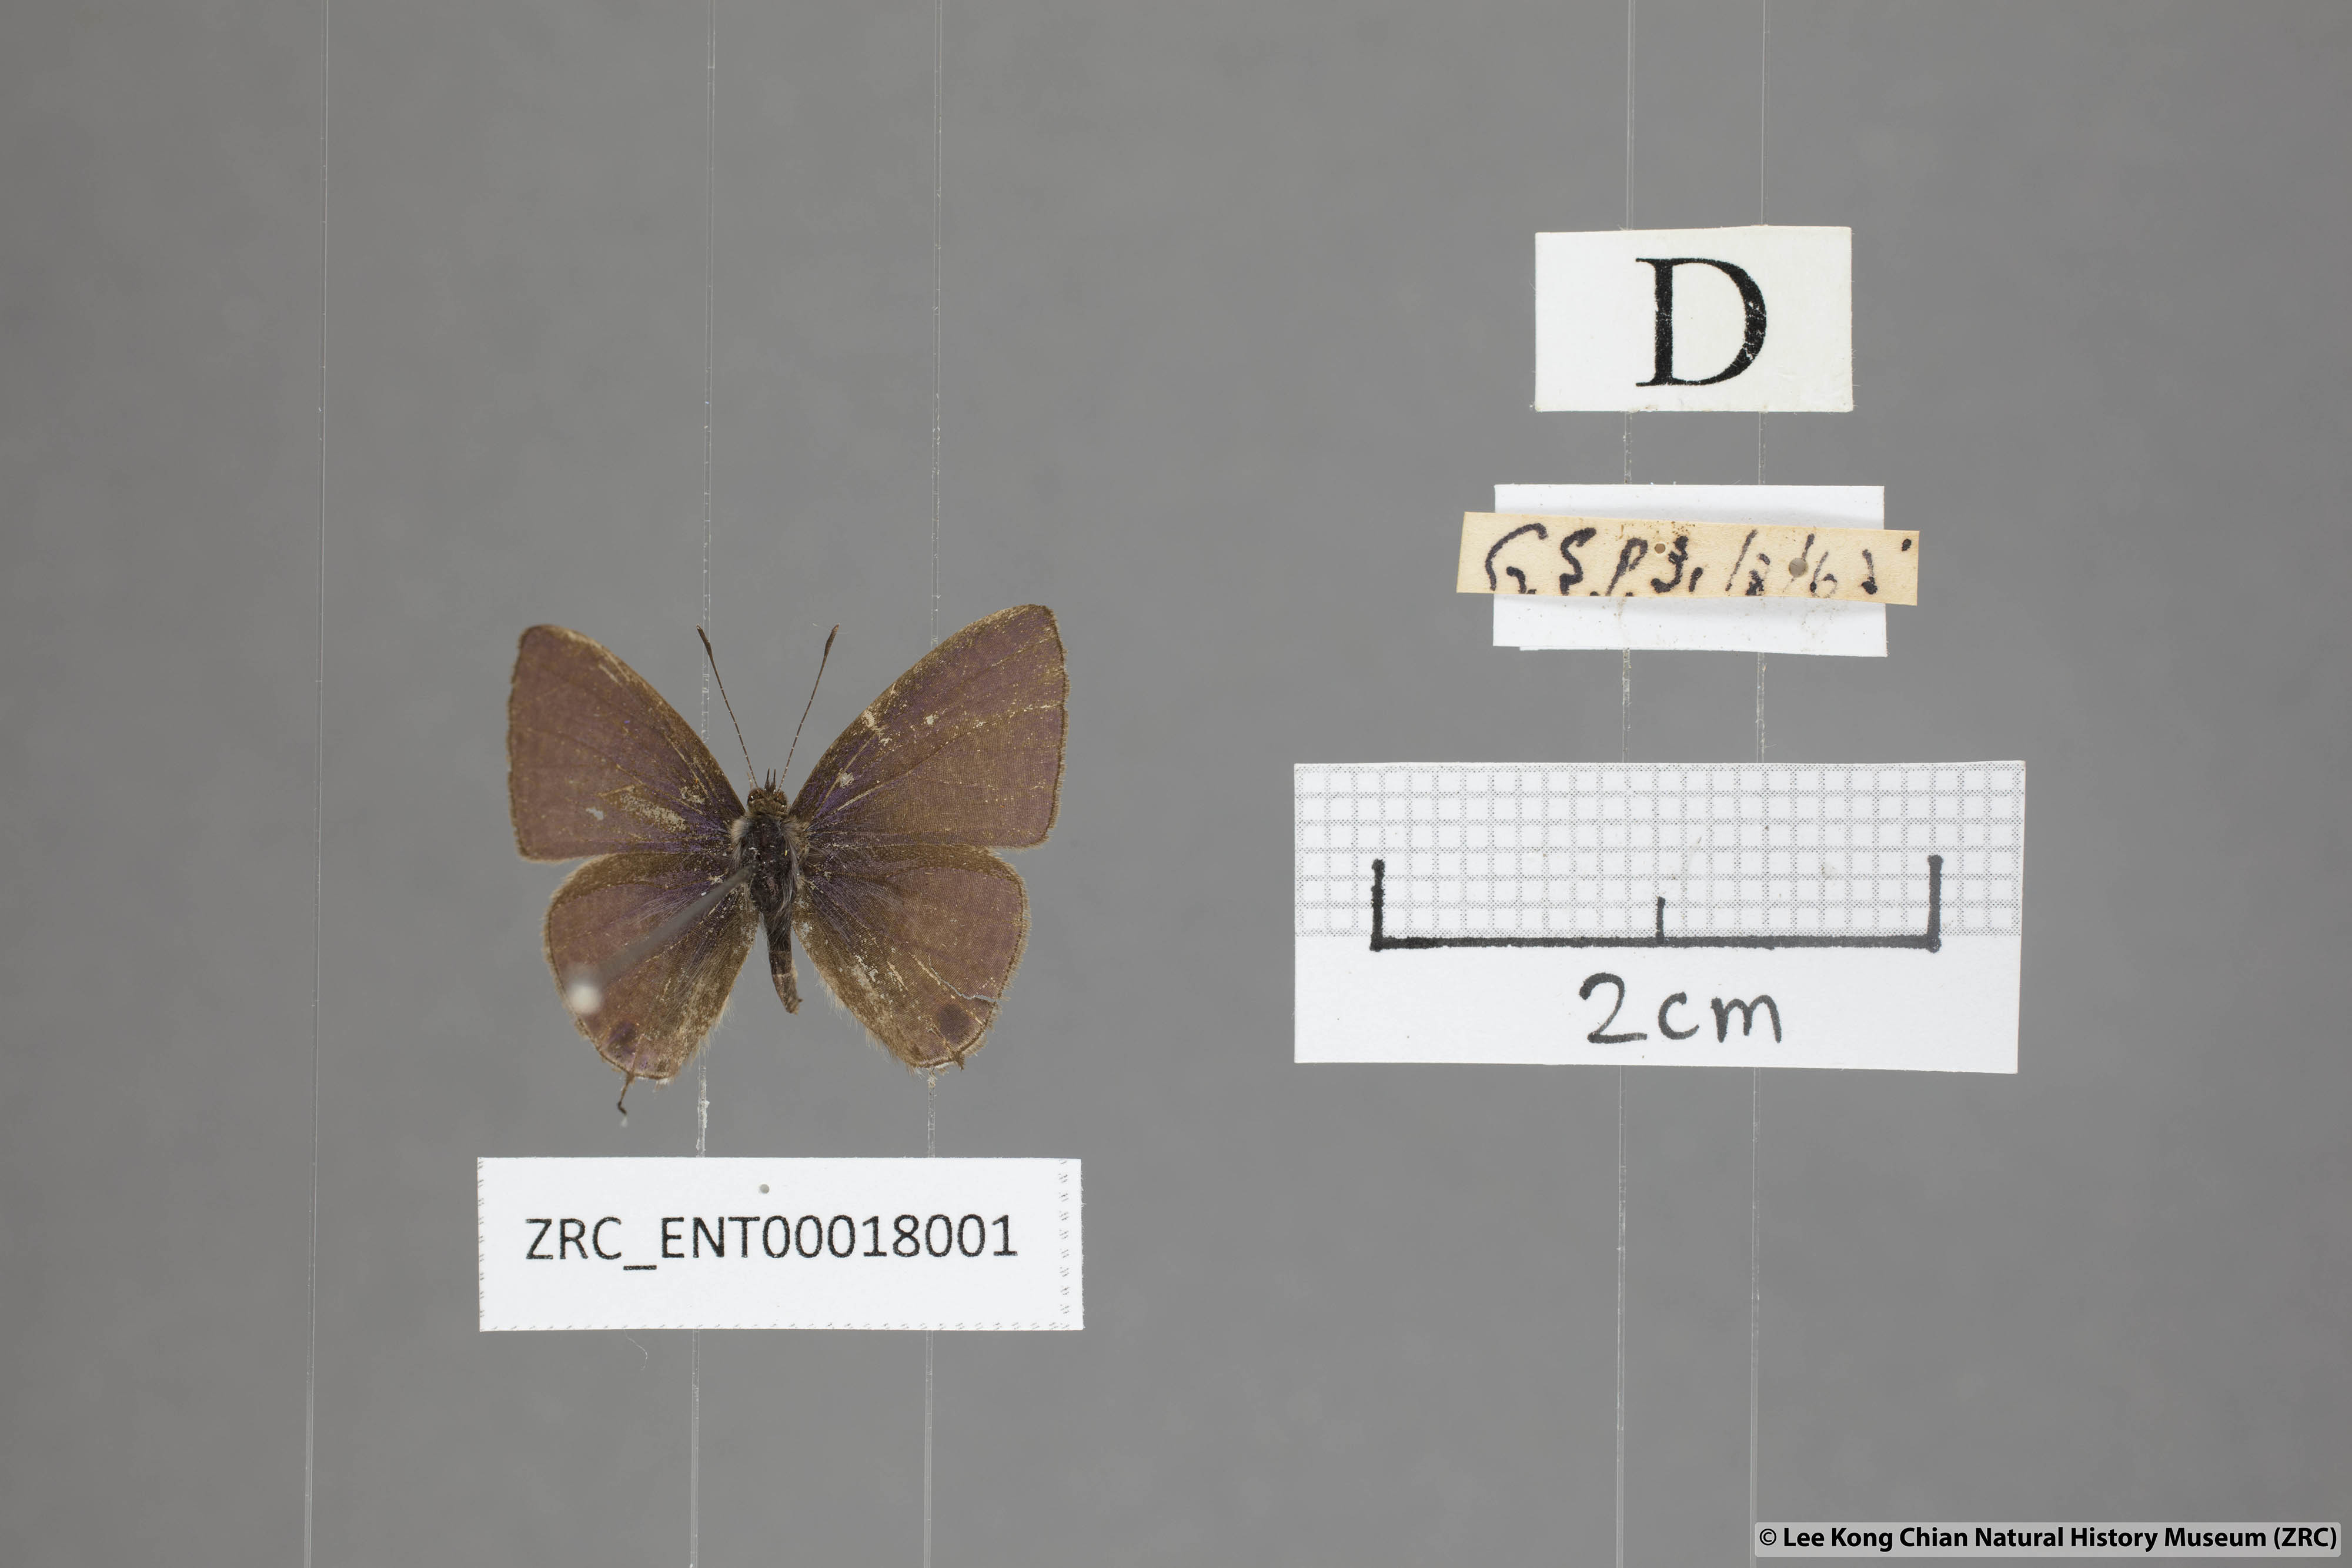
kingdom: Animalia
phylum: Arthropoda
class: Insecta
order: Lepidoptera
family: Lycaenidae
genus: Ionolyce
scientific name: Ionolyce helicon
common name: Pointed line blue
